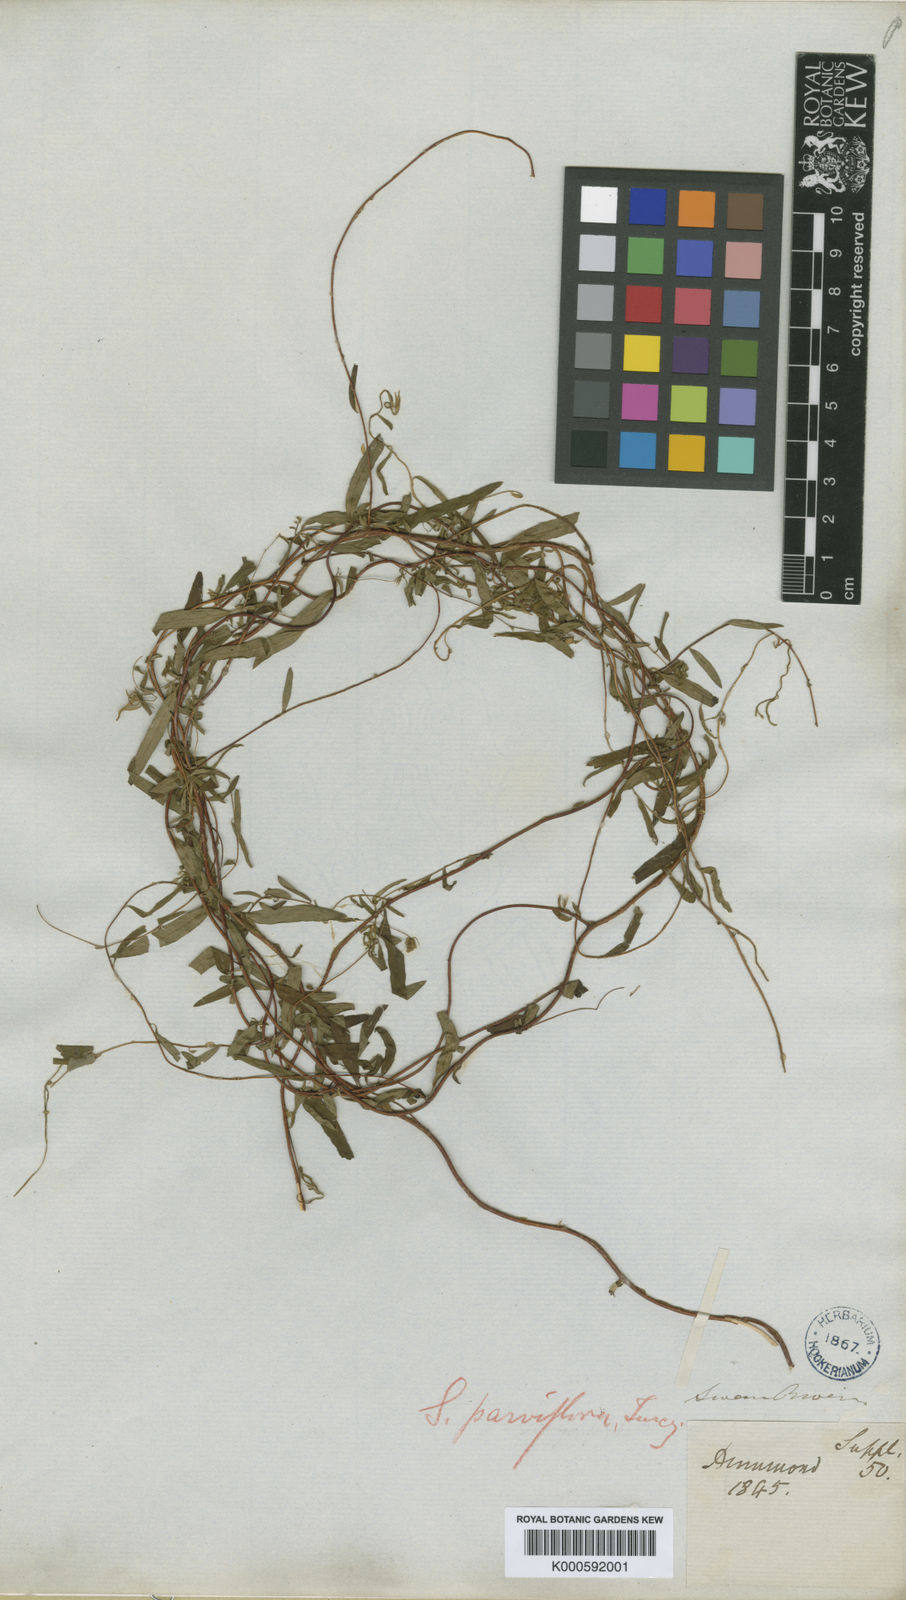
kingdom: Plantae
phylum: Tracheophyta
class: Magnoliopsida
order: Apiales
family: Pittosporaceae
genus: Billardiera
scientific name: Billardiera drummondii
